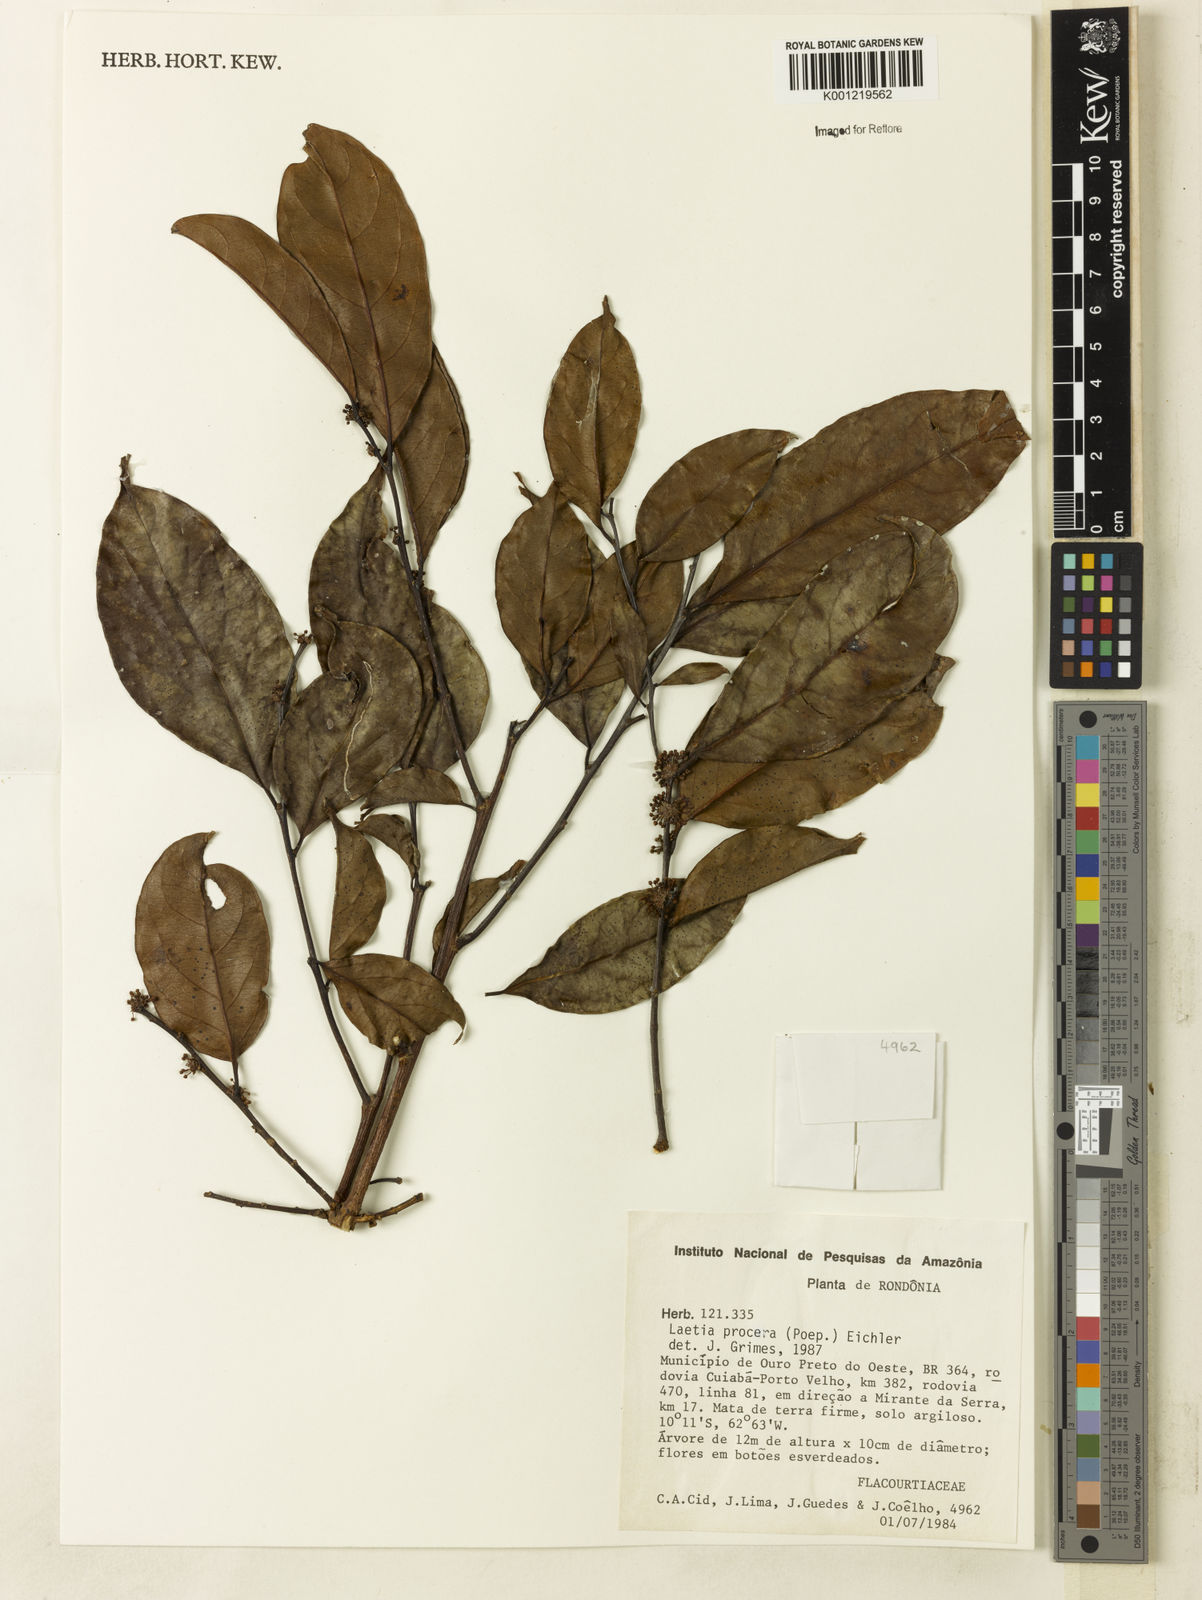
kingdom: Plantae
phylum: Tracheophyta
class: Magnoliopsida
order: Malpighiales
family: Salicaceae
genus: Casearia
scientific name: Casearia bicolor
